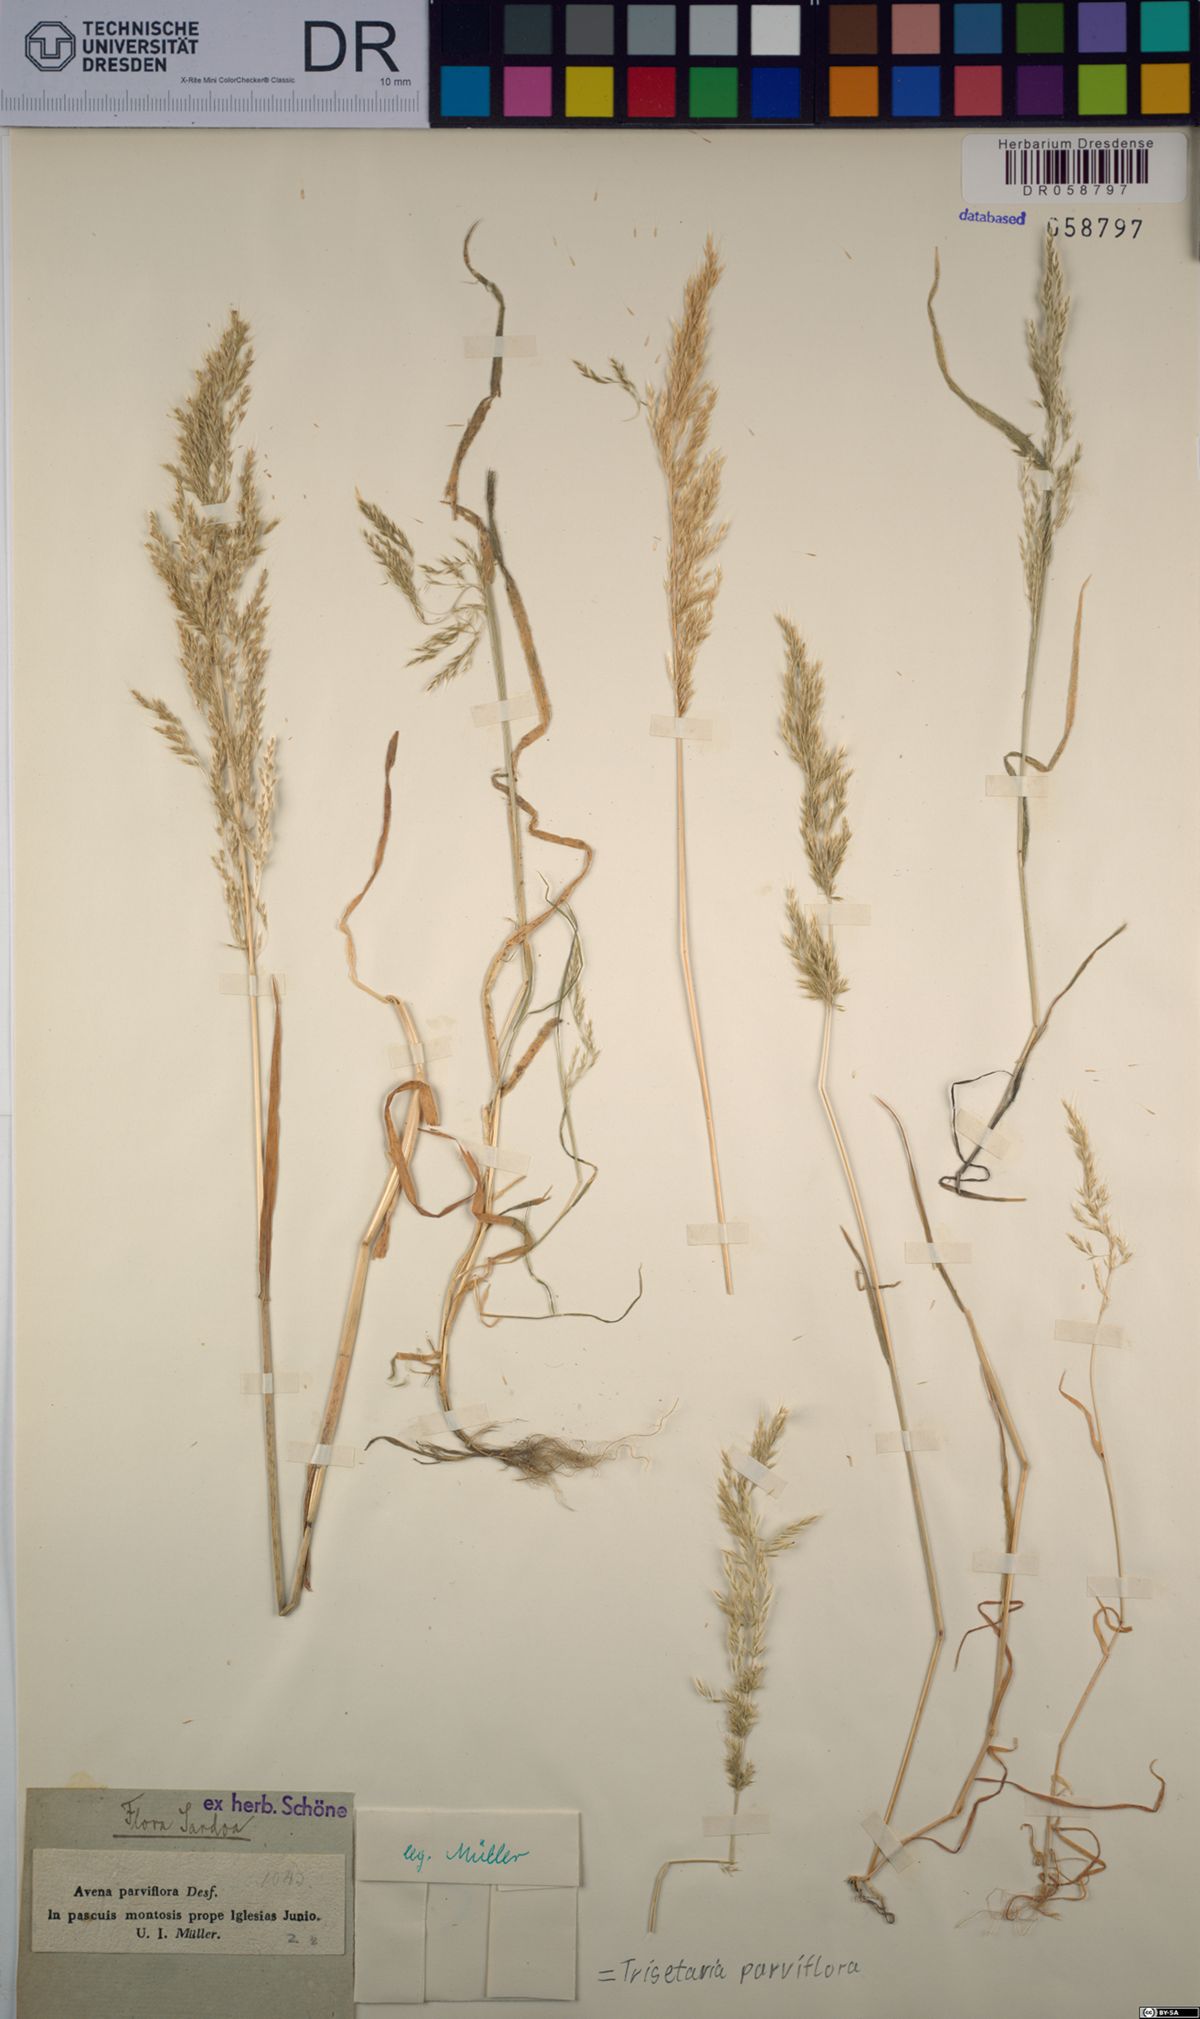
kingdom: Plantae
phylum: Tracheophyta
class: Liliopsida
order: Poales
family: Poaceae
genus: Trisetaria
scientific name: Trisetaria parviflora
